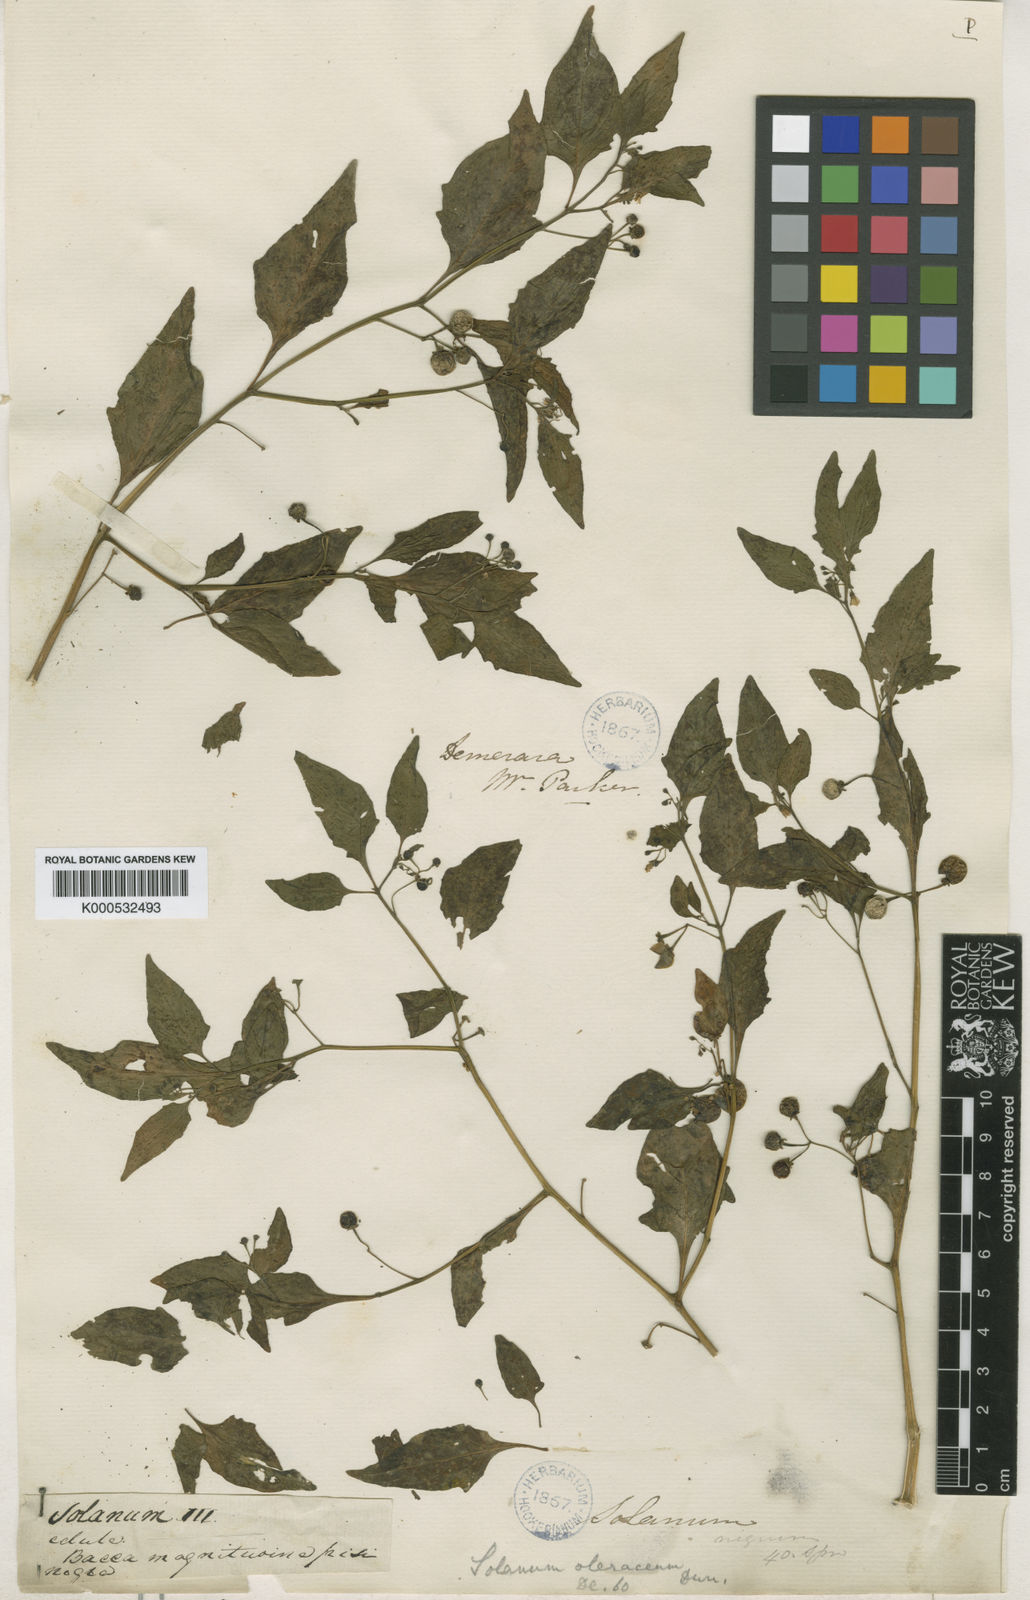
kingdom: Plantae
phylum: Tracheophyta
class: Magnoliopsida
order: Solanales
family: Solanaceae
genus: Solanum
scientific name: Solanum americanum
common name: American black nightshade
